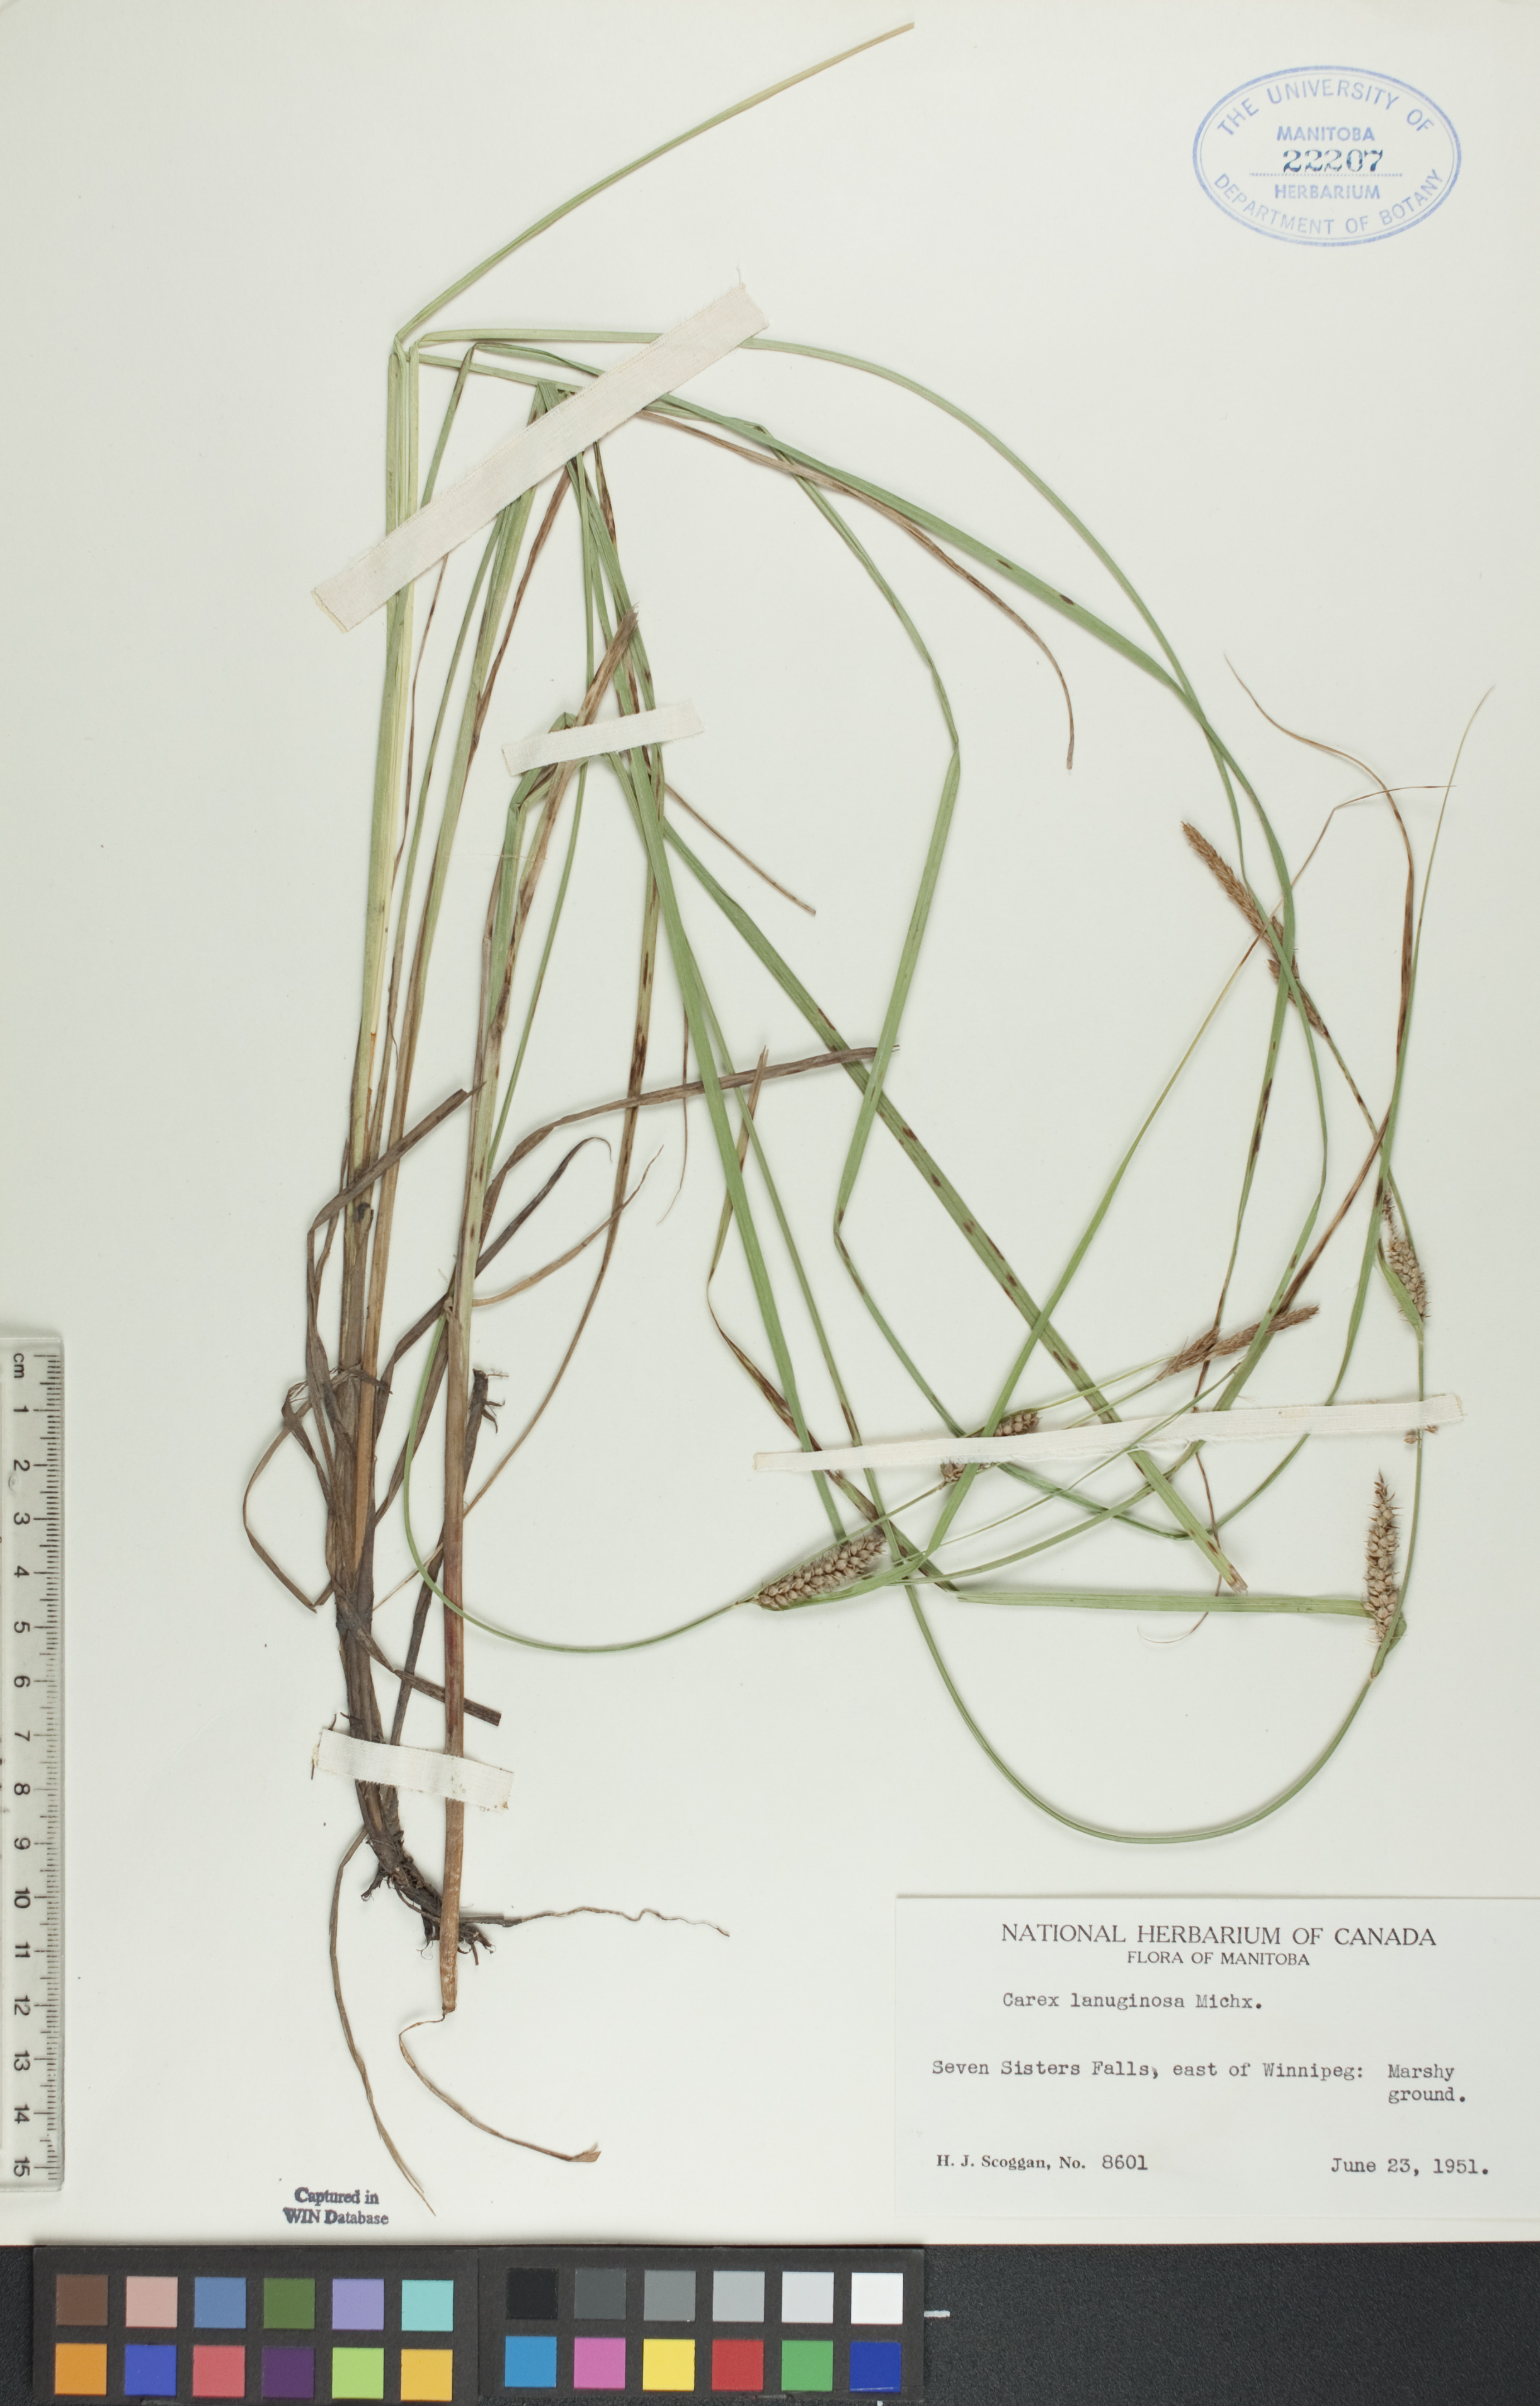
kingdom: Plantae
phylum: Tracheophyta
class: Liliopsida
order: Poales
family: Cyperaceae
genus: Carex
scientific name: Carex lasiocarpa
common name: Slender sedge
